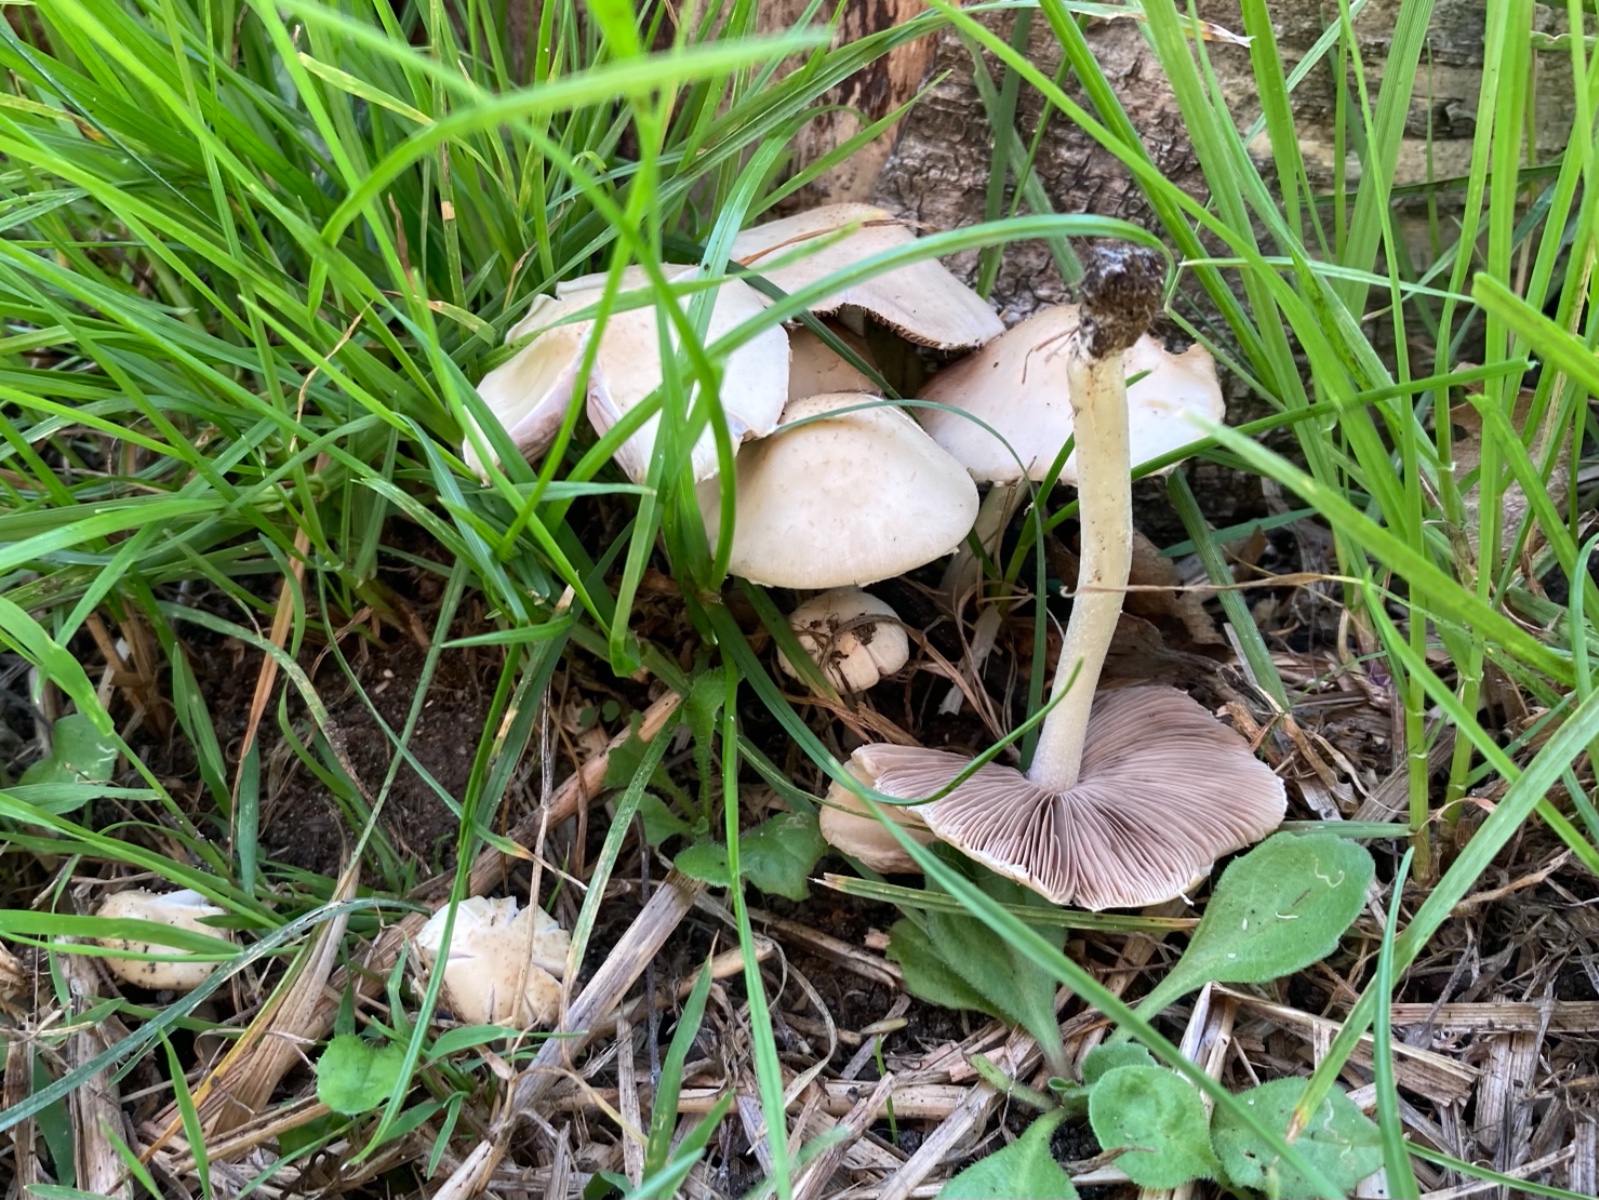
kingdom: Fungi
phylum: Basidiomycota
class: Agaricomycetes
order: Agaricales
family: Psathyrellaceae
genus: Candolleomyces
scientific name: Candolleomyces candolleanus
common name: Candolles mørkhat
